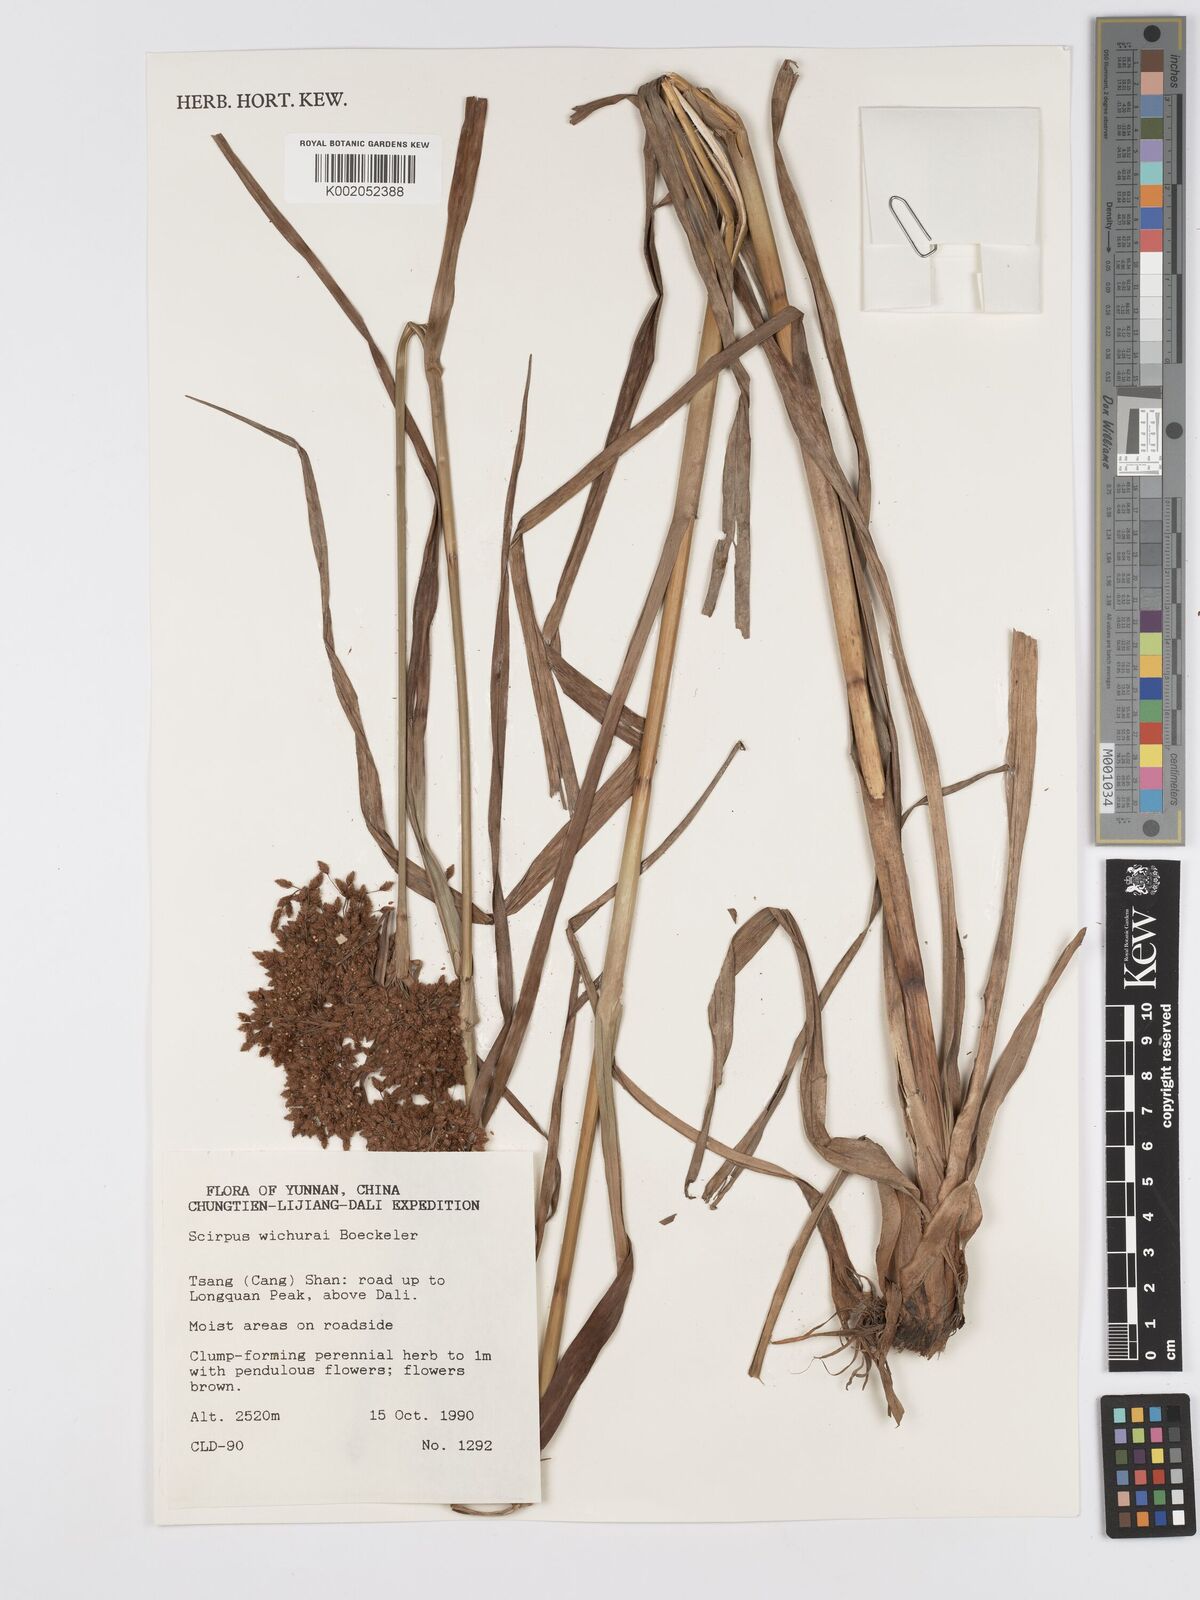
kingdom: Plantae
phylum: Tracheophyta
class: Liliopsida
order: Poales
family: Cyperaceae
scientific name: Cyperaceae
